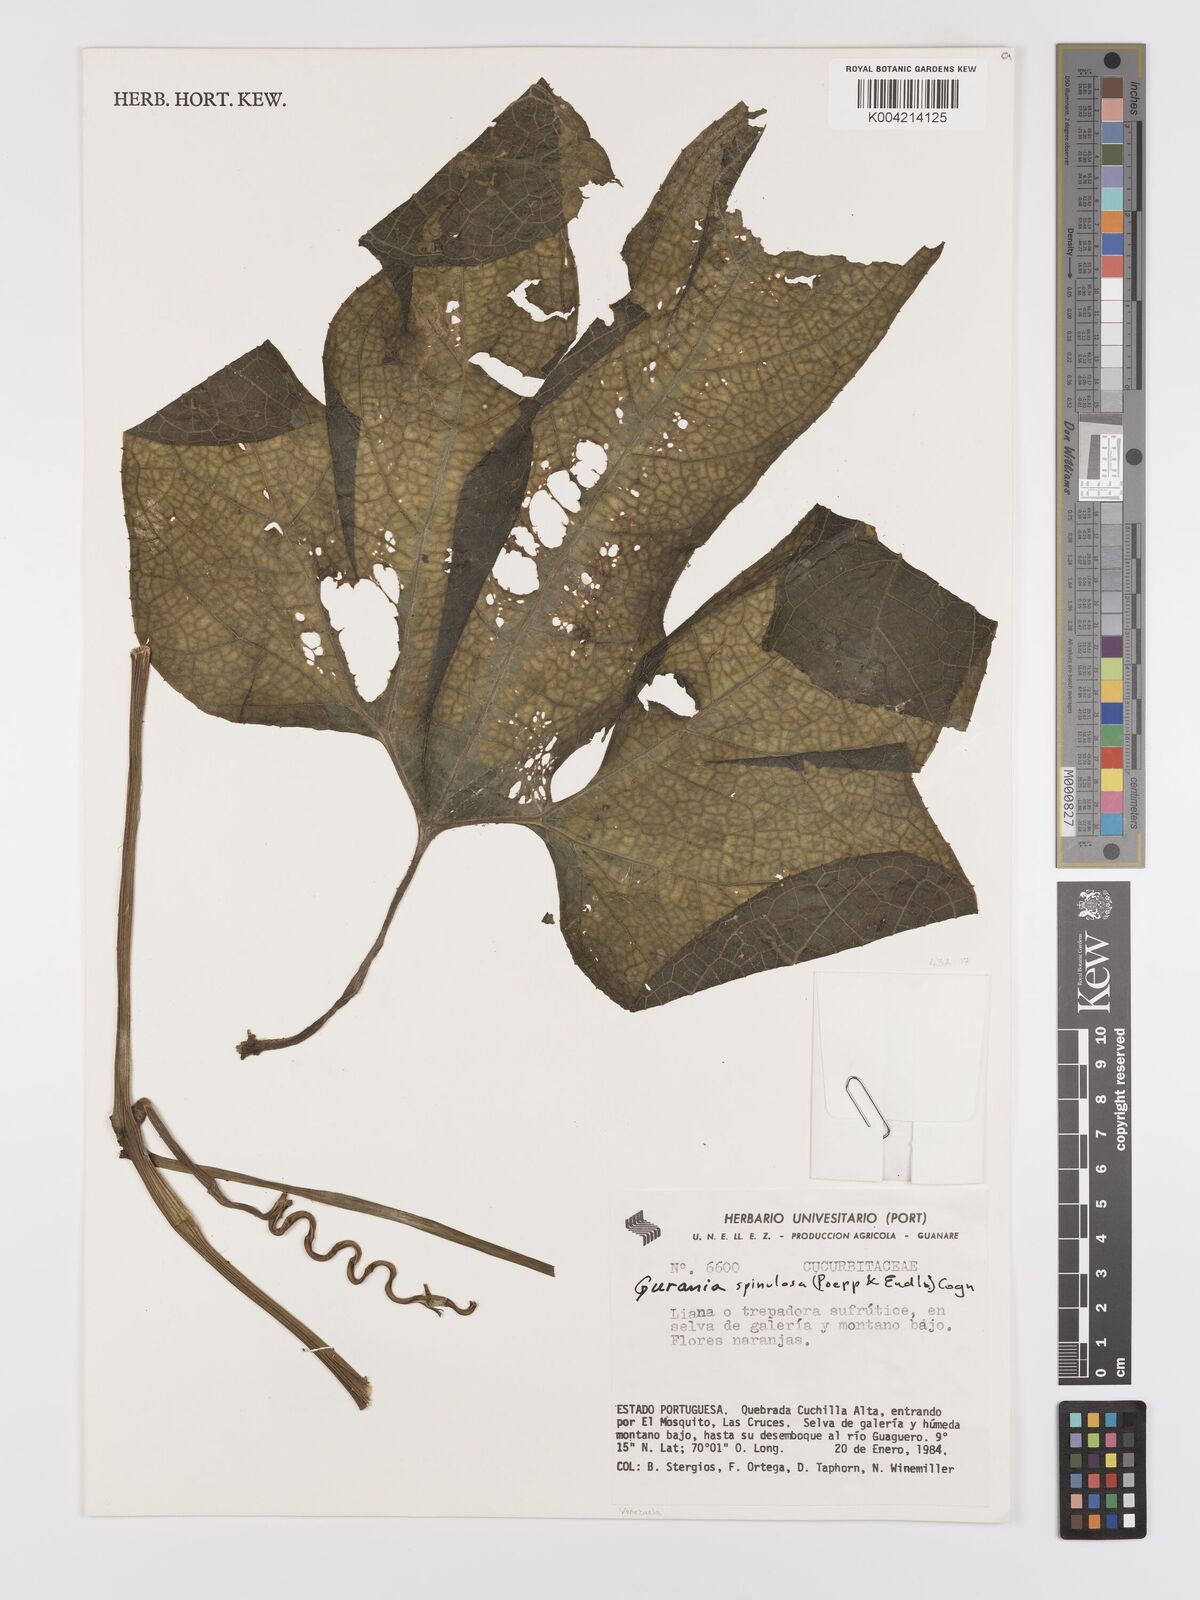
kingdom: Plantae
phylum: Tracheophyta
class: Magnoliopsida
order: Cucurbitales
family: Cucurbitaceae
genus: Gurania
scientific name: Gurania lobata
